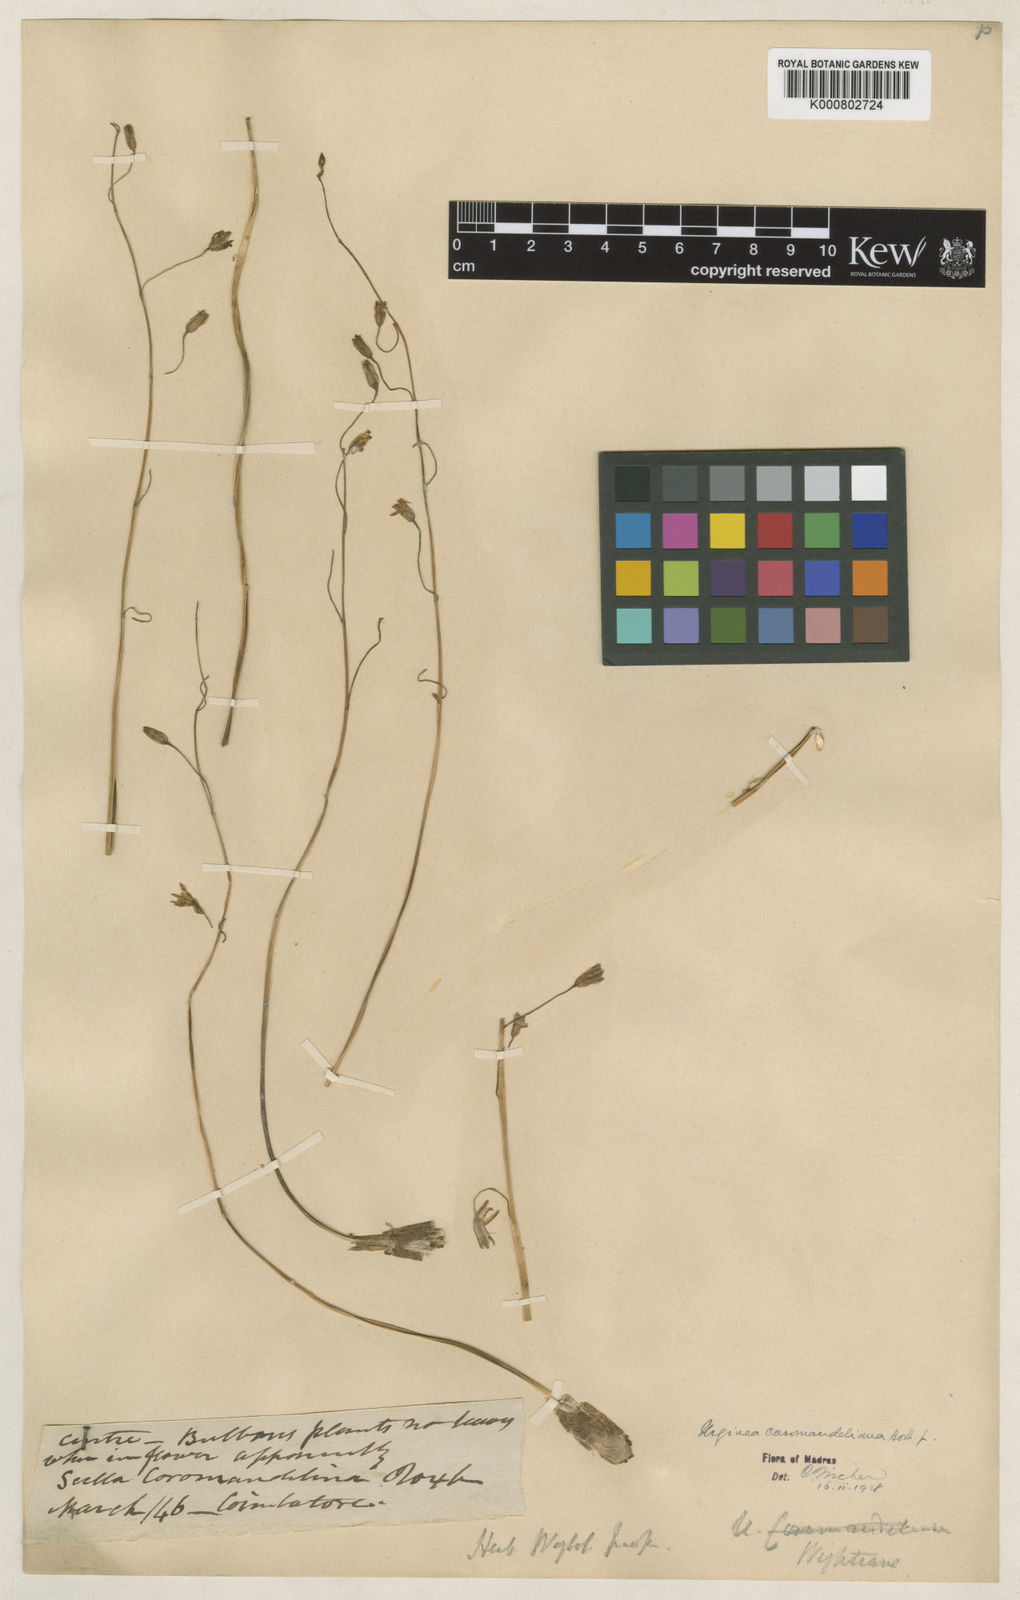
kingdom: Plantae
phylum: Tracheophyta
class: Liliopsida
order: Asparagales
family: Asparagaceae
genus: Drimia
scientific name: Drimia coromandeliana
